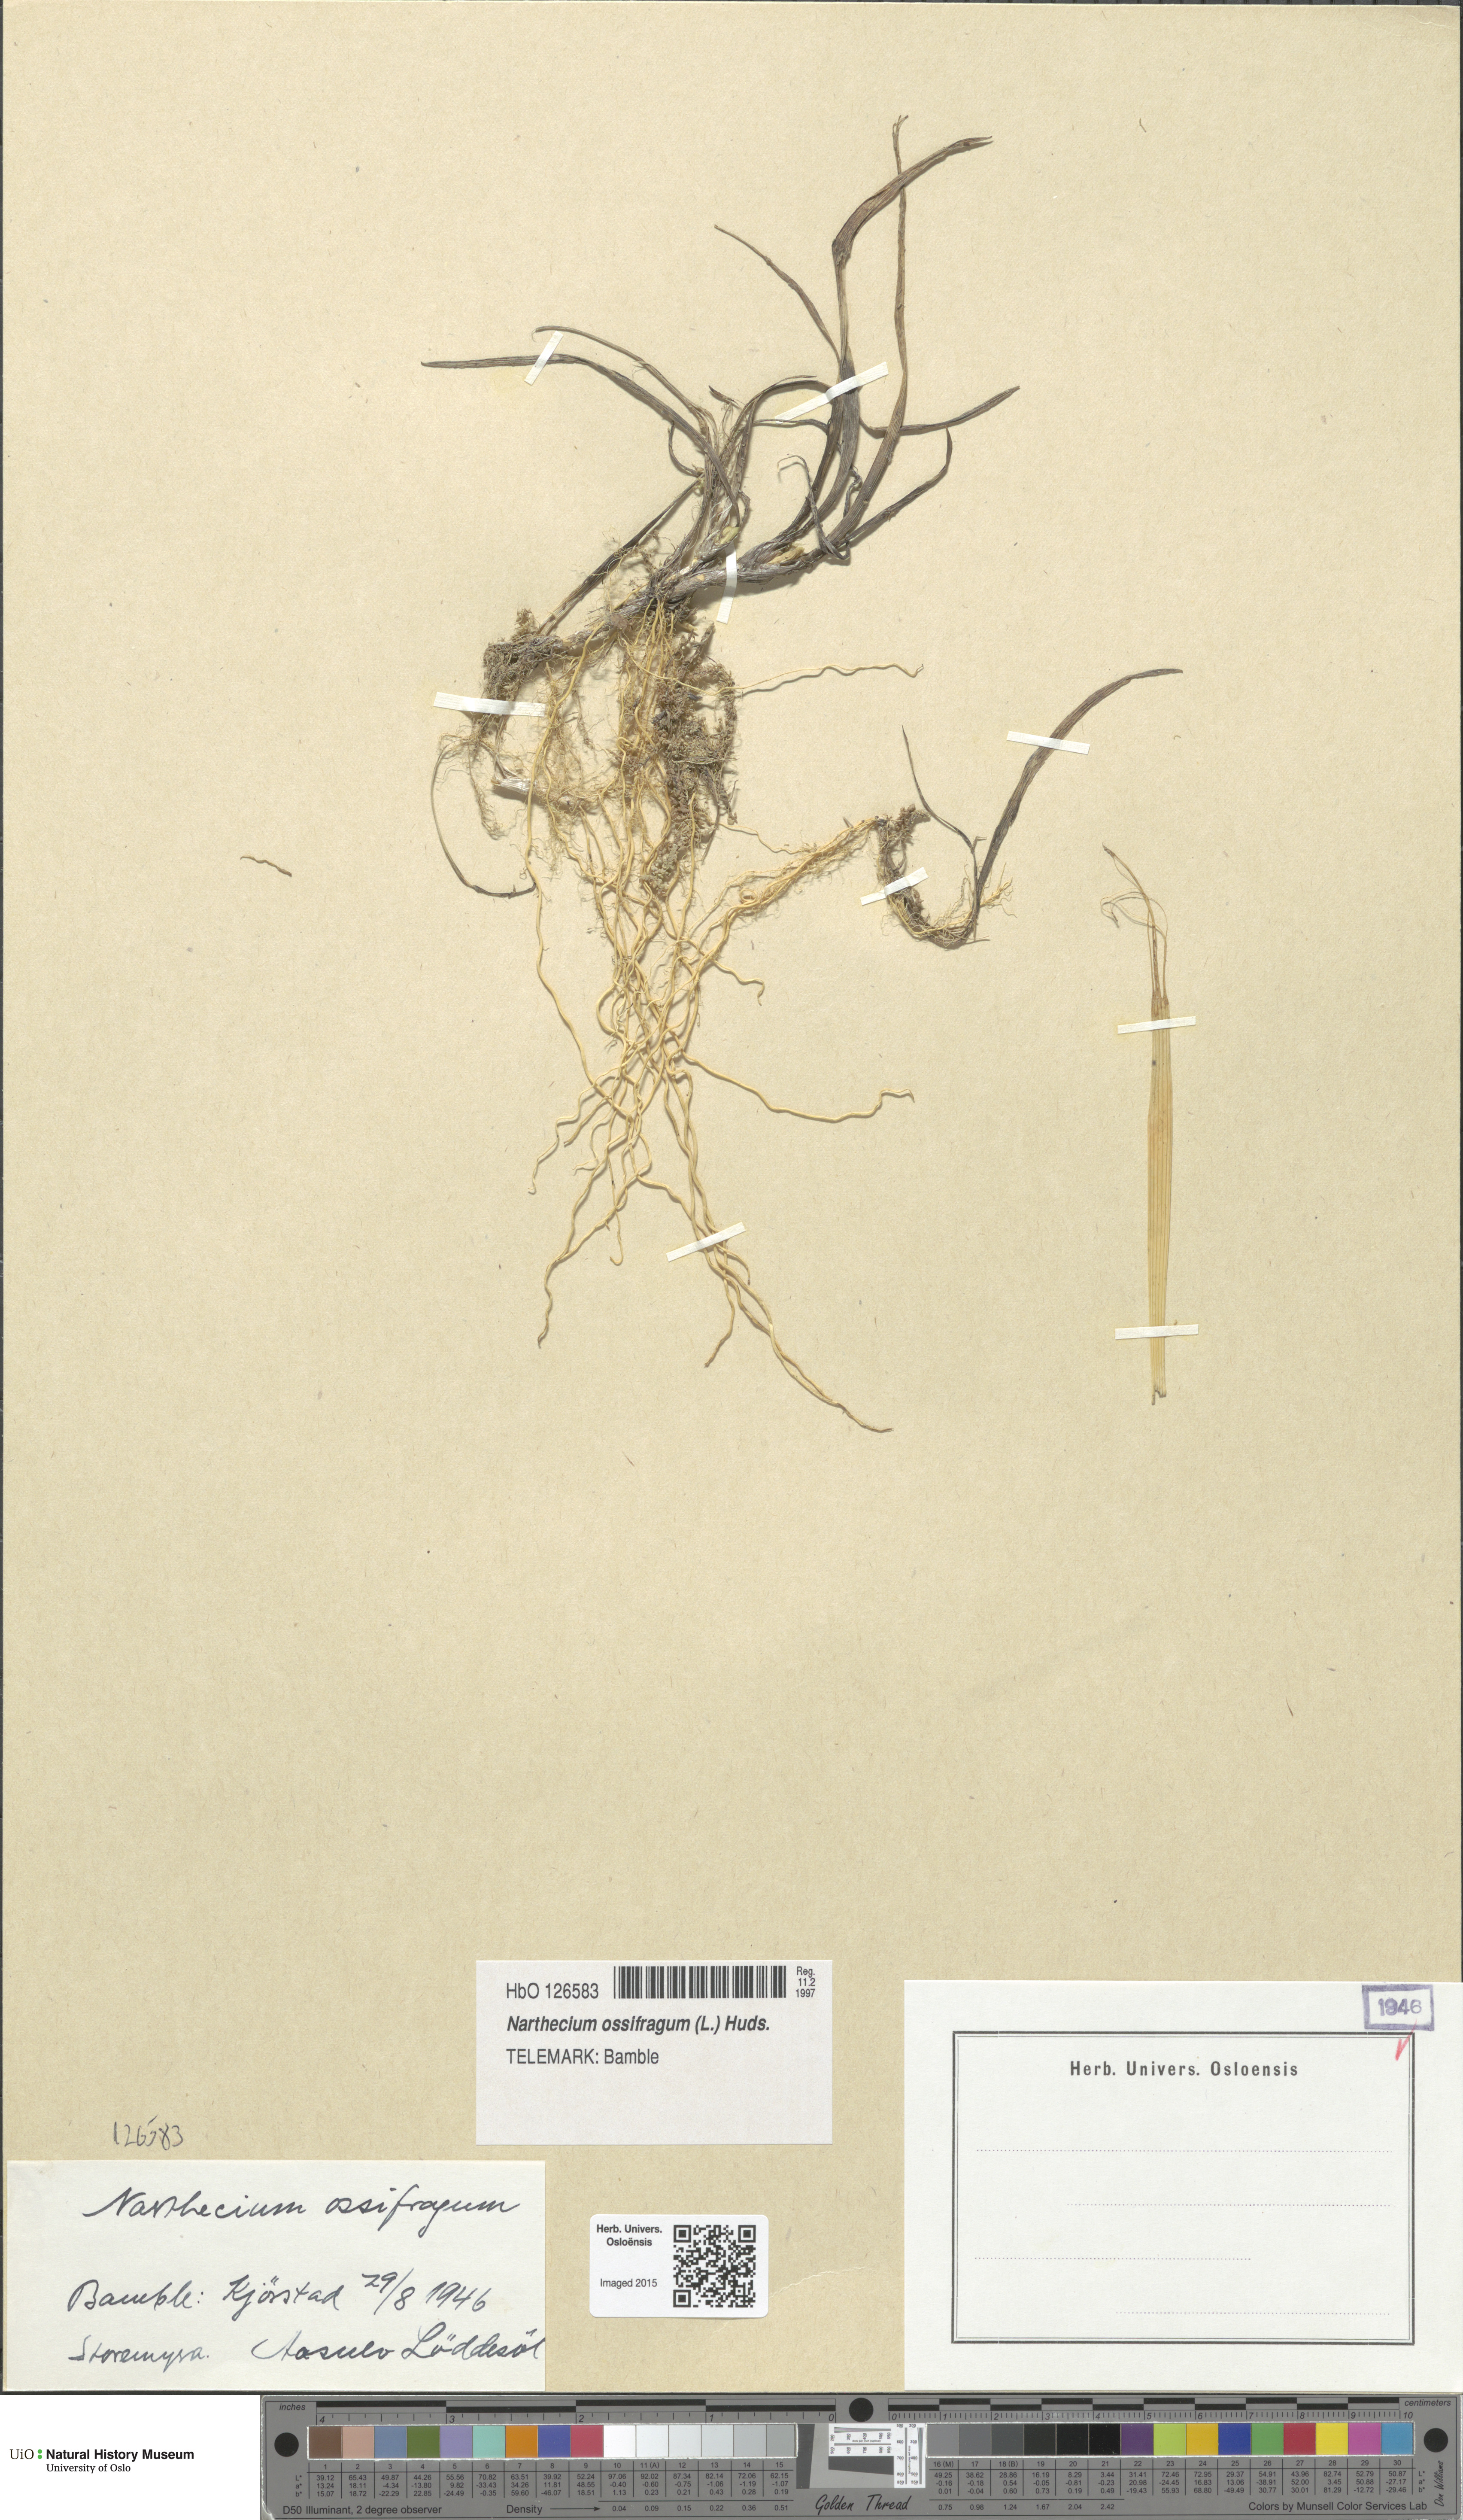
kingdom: Plantae
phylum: Tracheophyta
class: Liliopsida
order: Dioscoreales
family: Nartheciaceae
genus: Narthecium
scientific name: Narthecium ossifragum
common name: Bog asphodel
